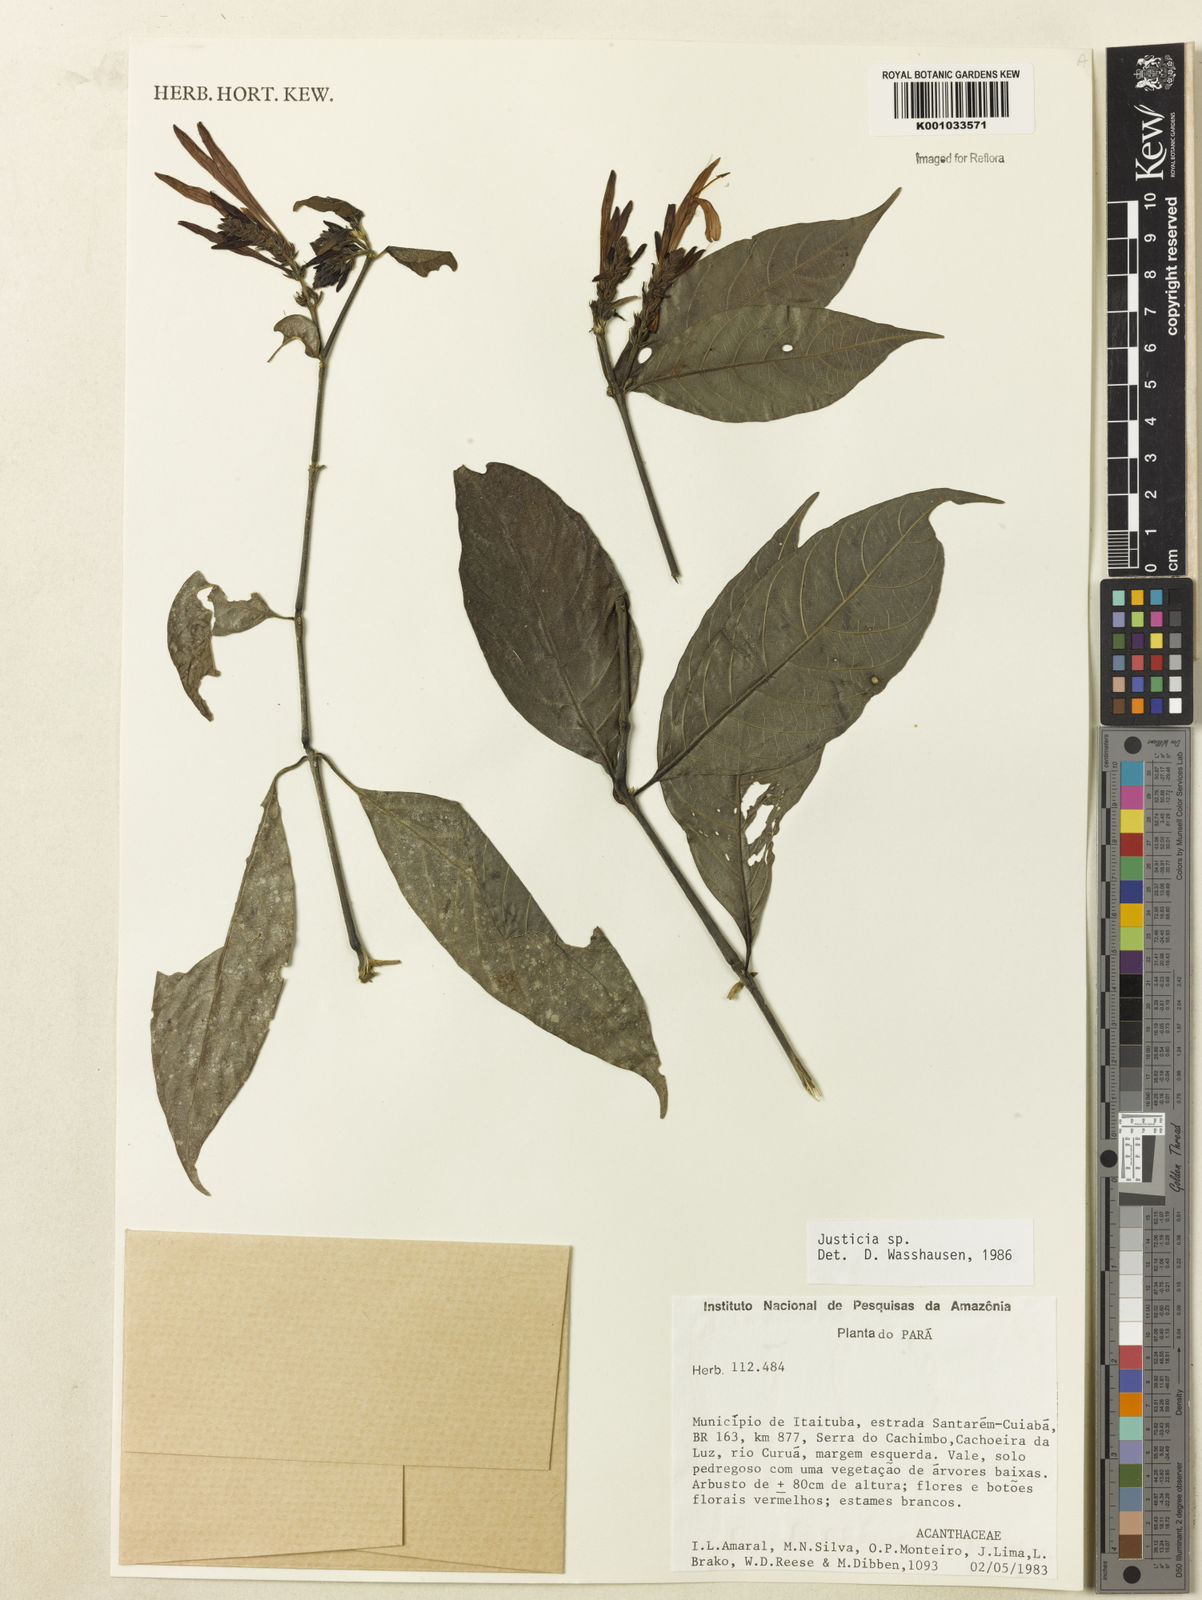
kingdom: Plantae
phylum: Tracheophyta
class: Magnoliopsida
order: Lamiales
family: Acanthaceae
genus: Justicia
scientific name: Justicia
